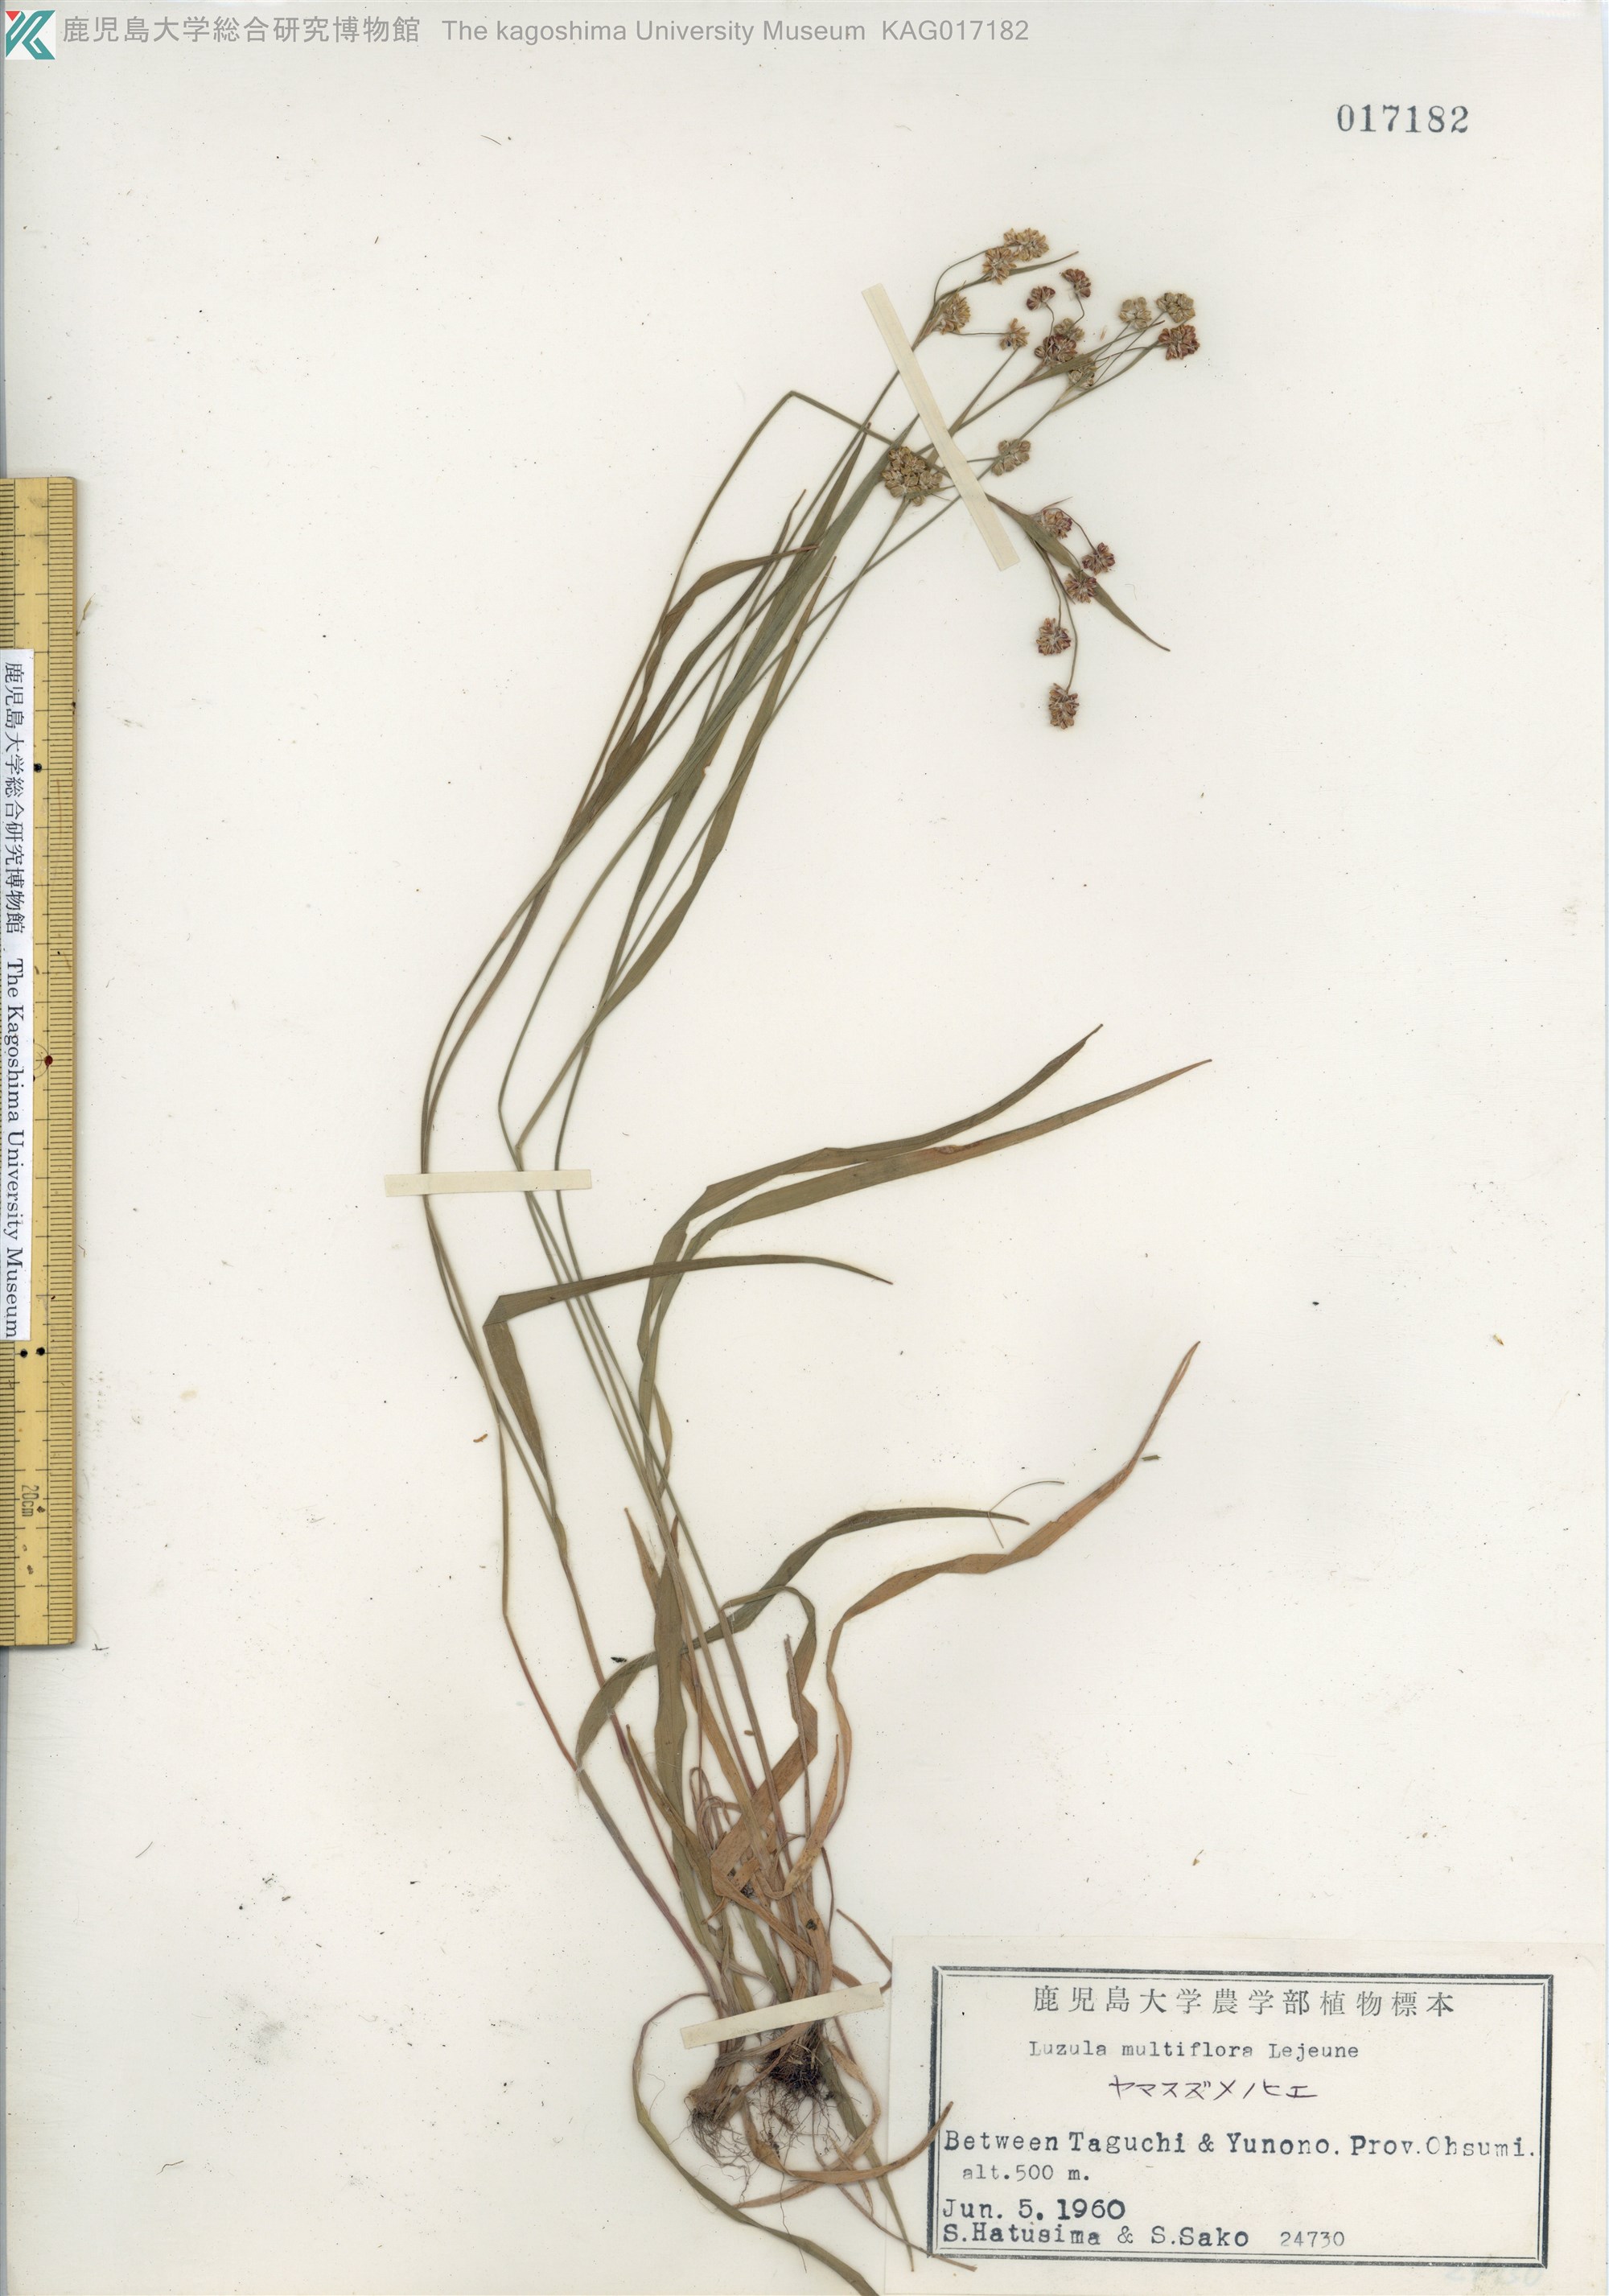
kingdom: Plantae
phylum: Tracheophyta
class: Liliopsida
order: Poales
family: Juncaceae
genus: Luzula
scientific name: Luzula multiflora
